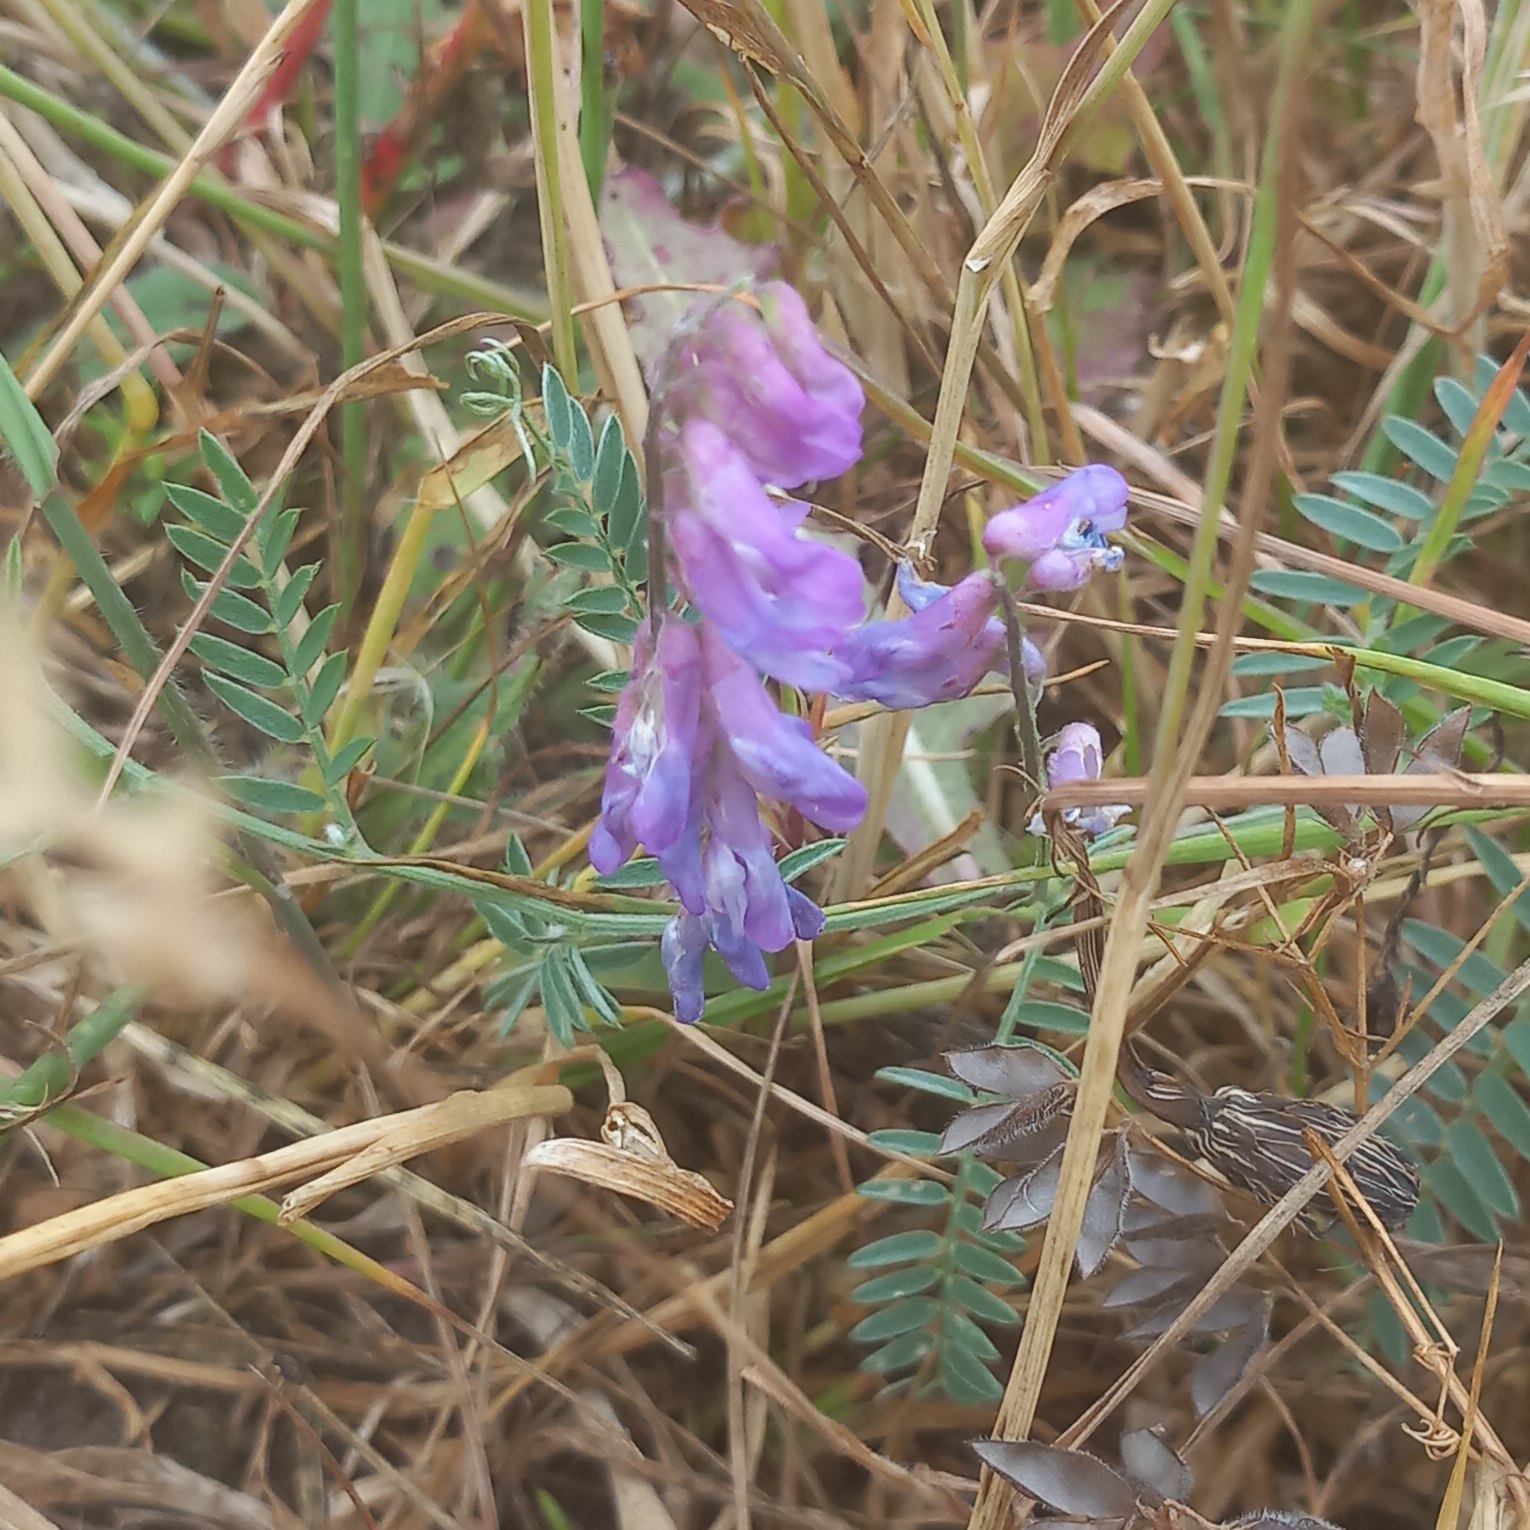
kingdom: Plantae
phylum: Tracheophyta
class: Magnoliopsida
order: Fabales
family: Fabaceae
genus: Vicia
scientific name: Vicia cracca
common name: Muse-vikke
